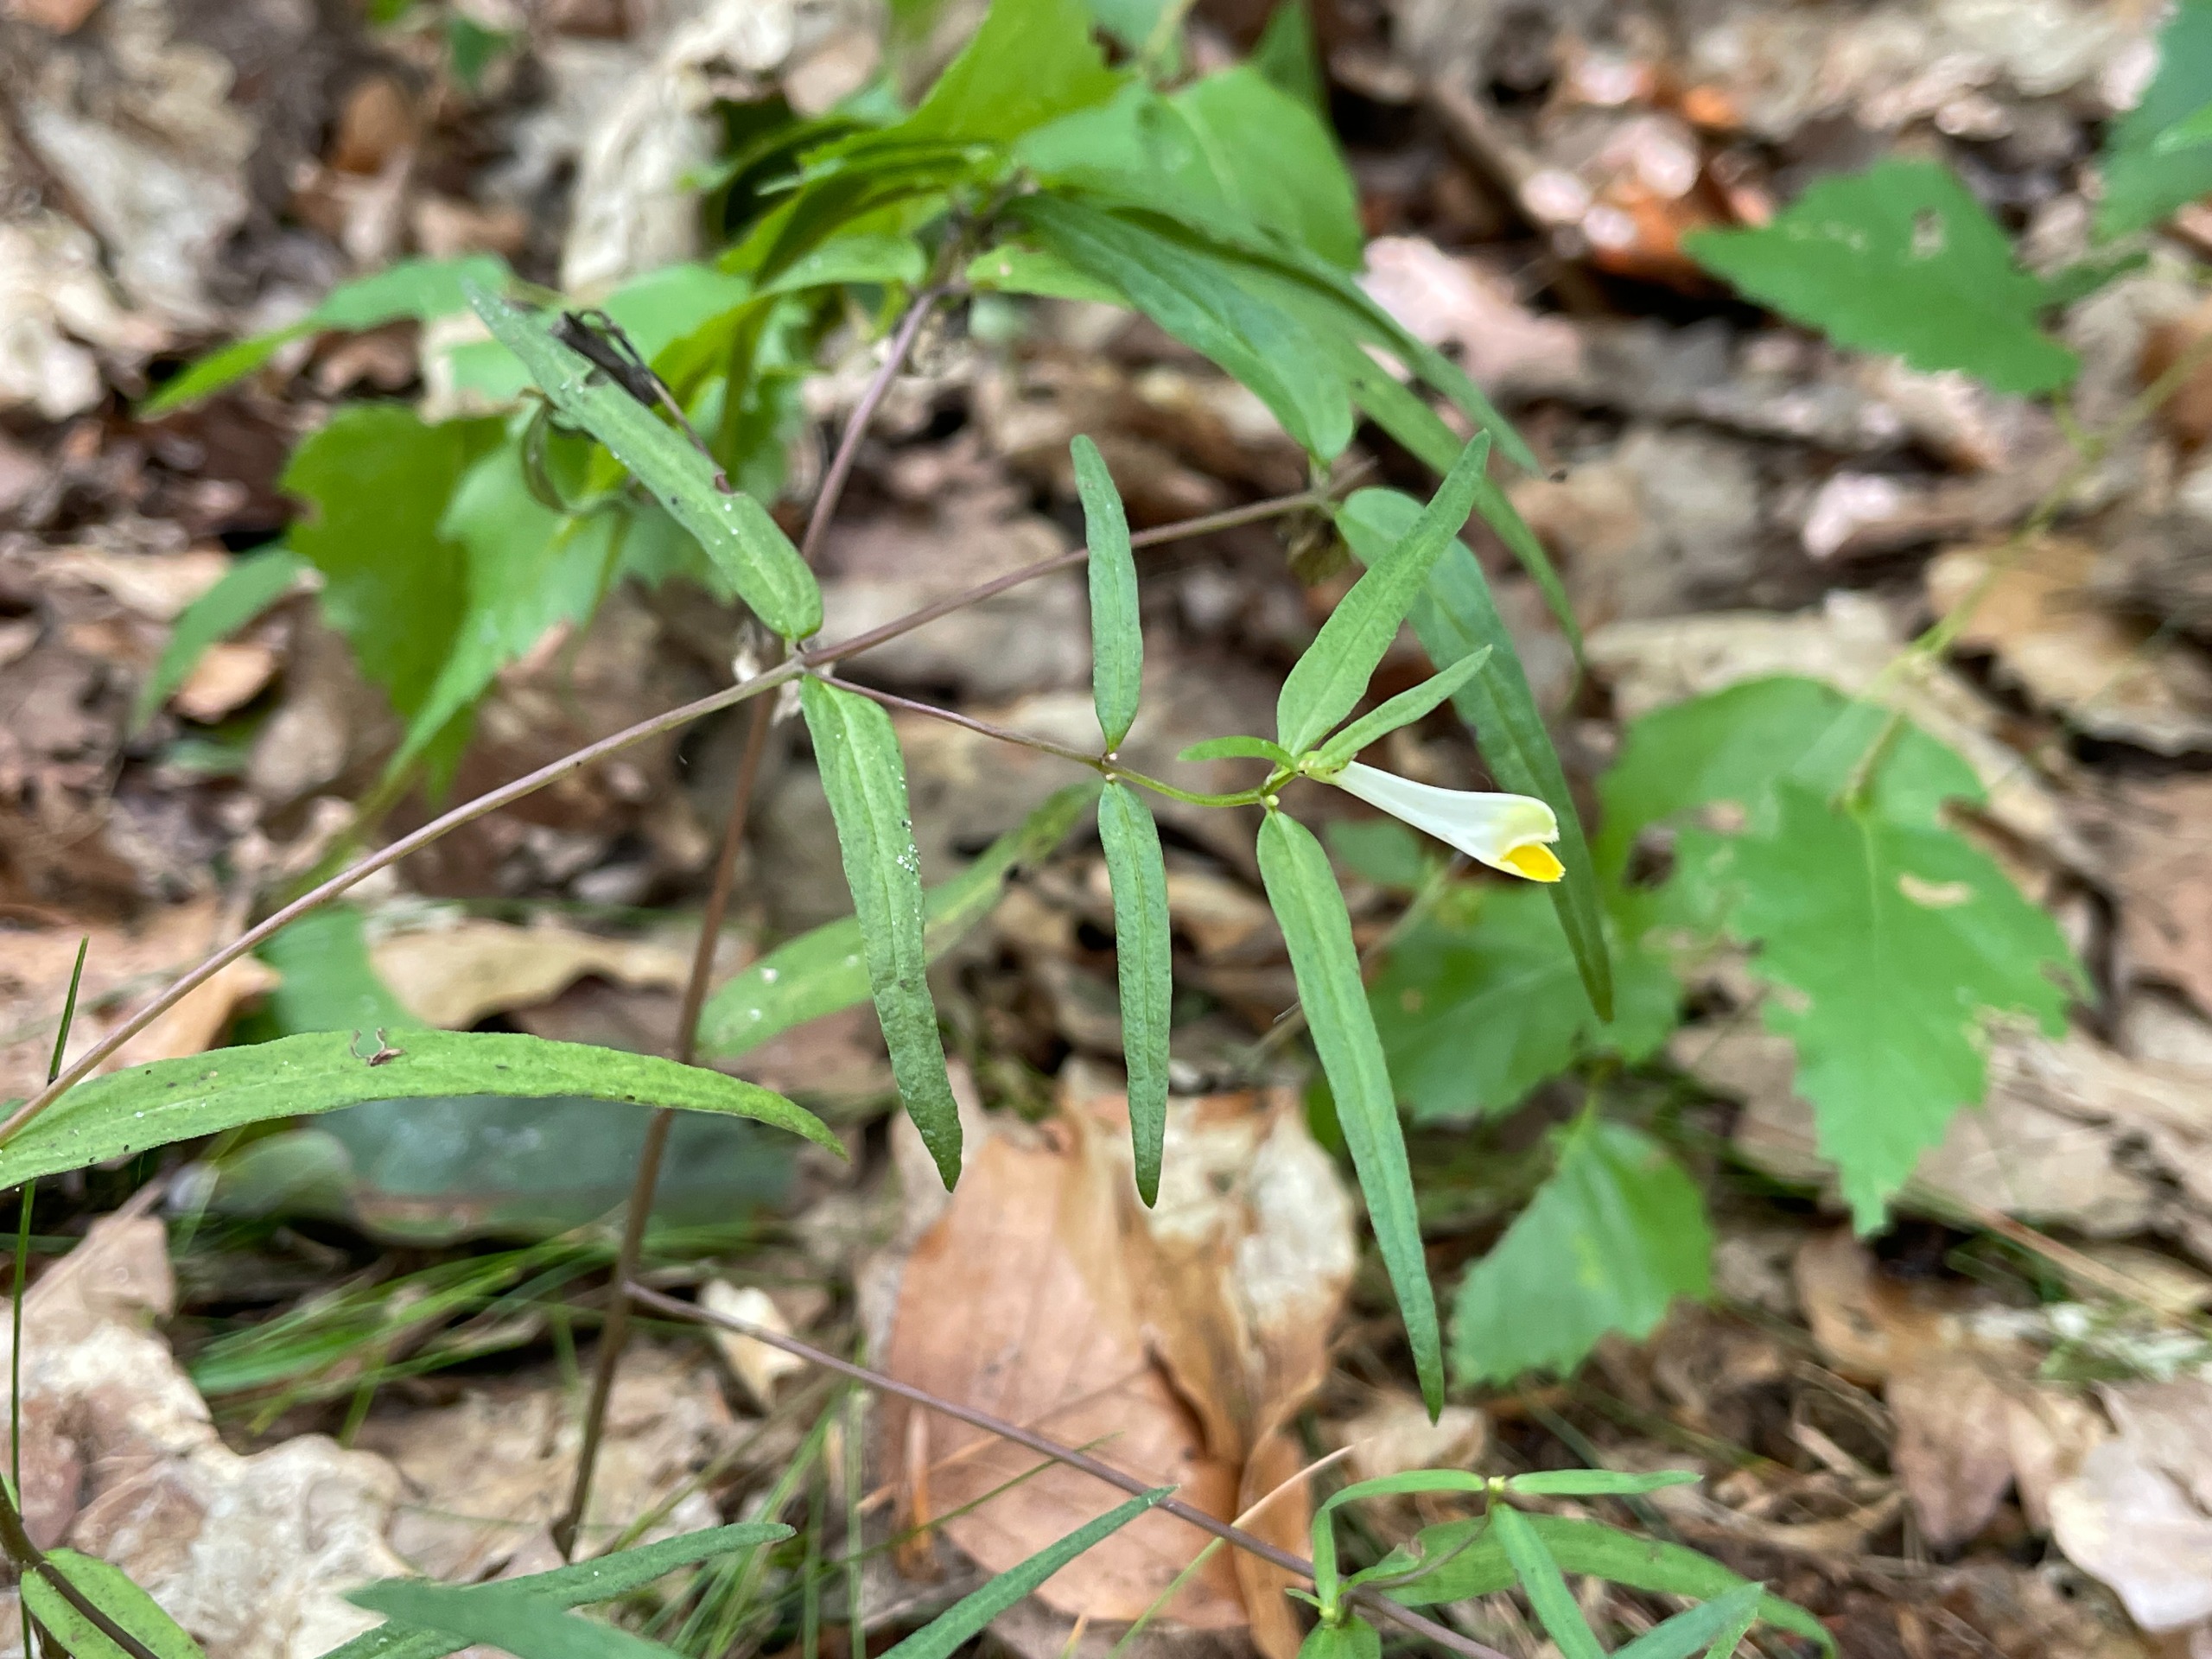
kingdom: Plantae
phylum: Tracheophyta
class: Magnoliopsida
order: Lamiales
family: Orobanchaceae
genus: Melampyrum
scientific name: Melampyrum pratense
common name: Almindelig kohvede
